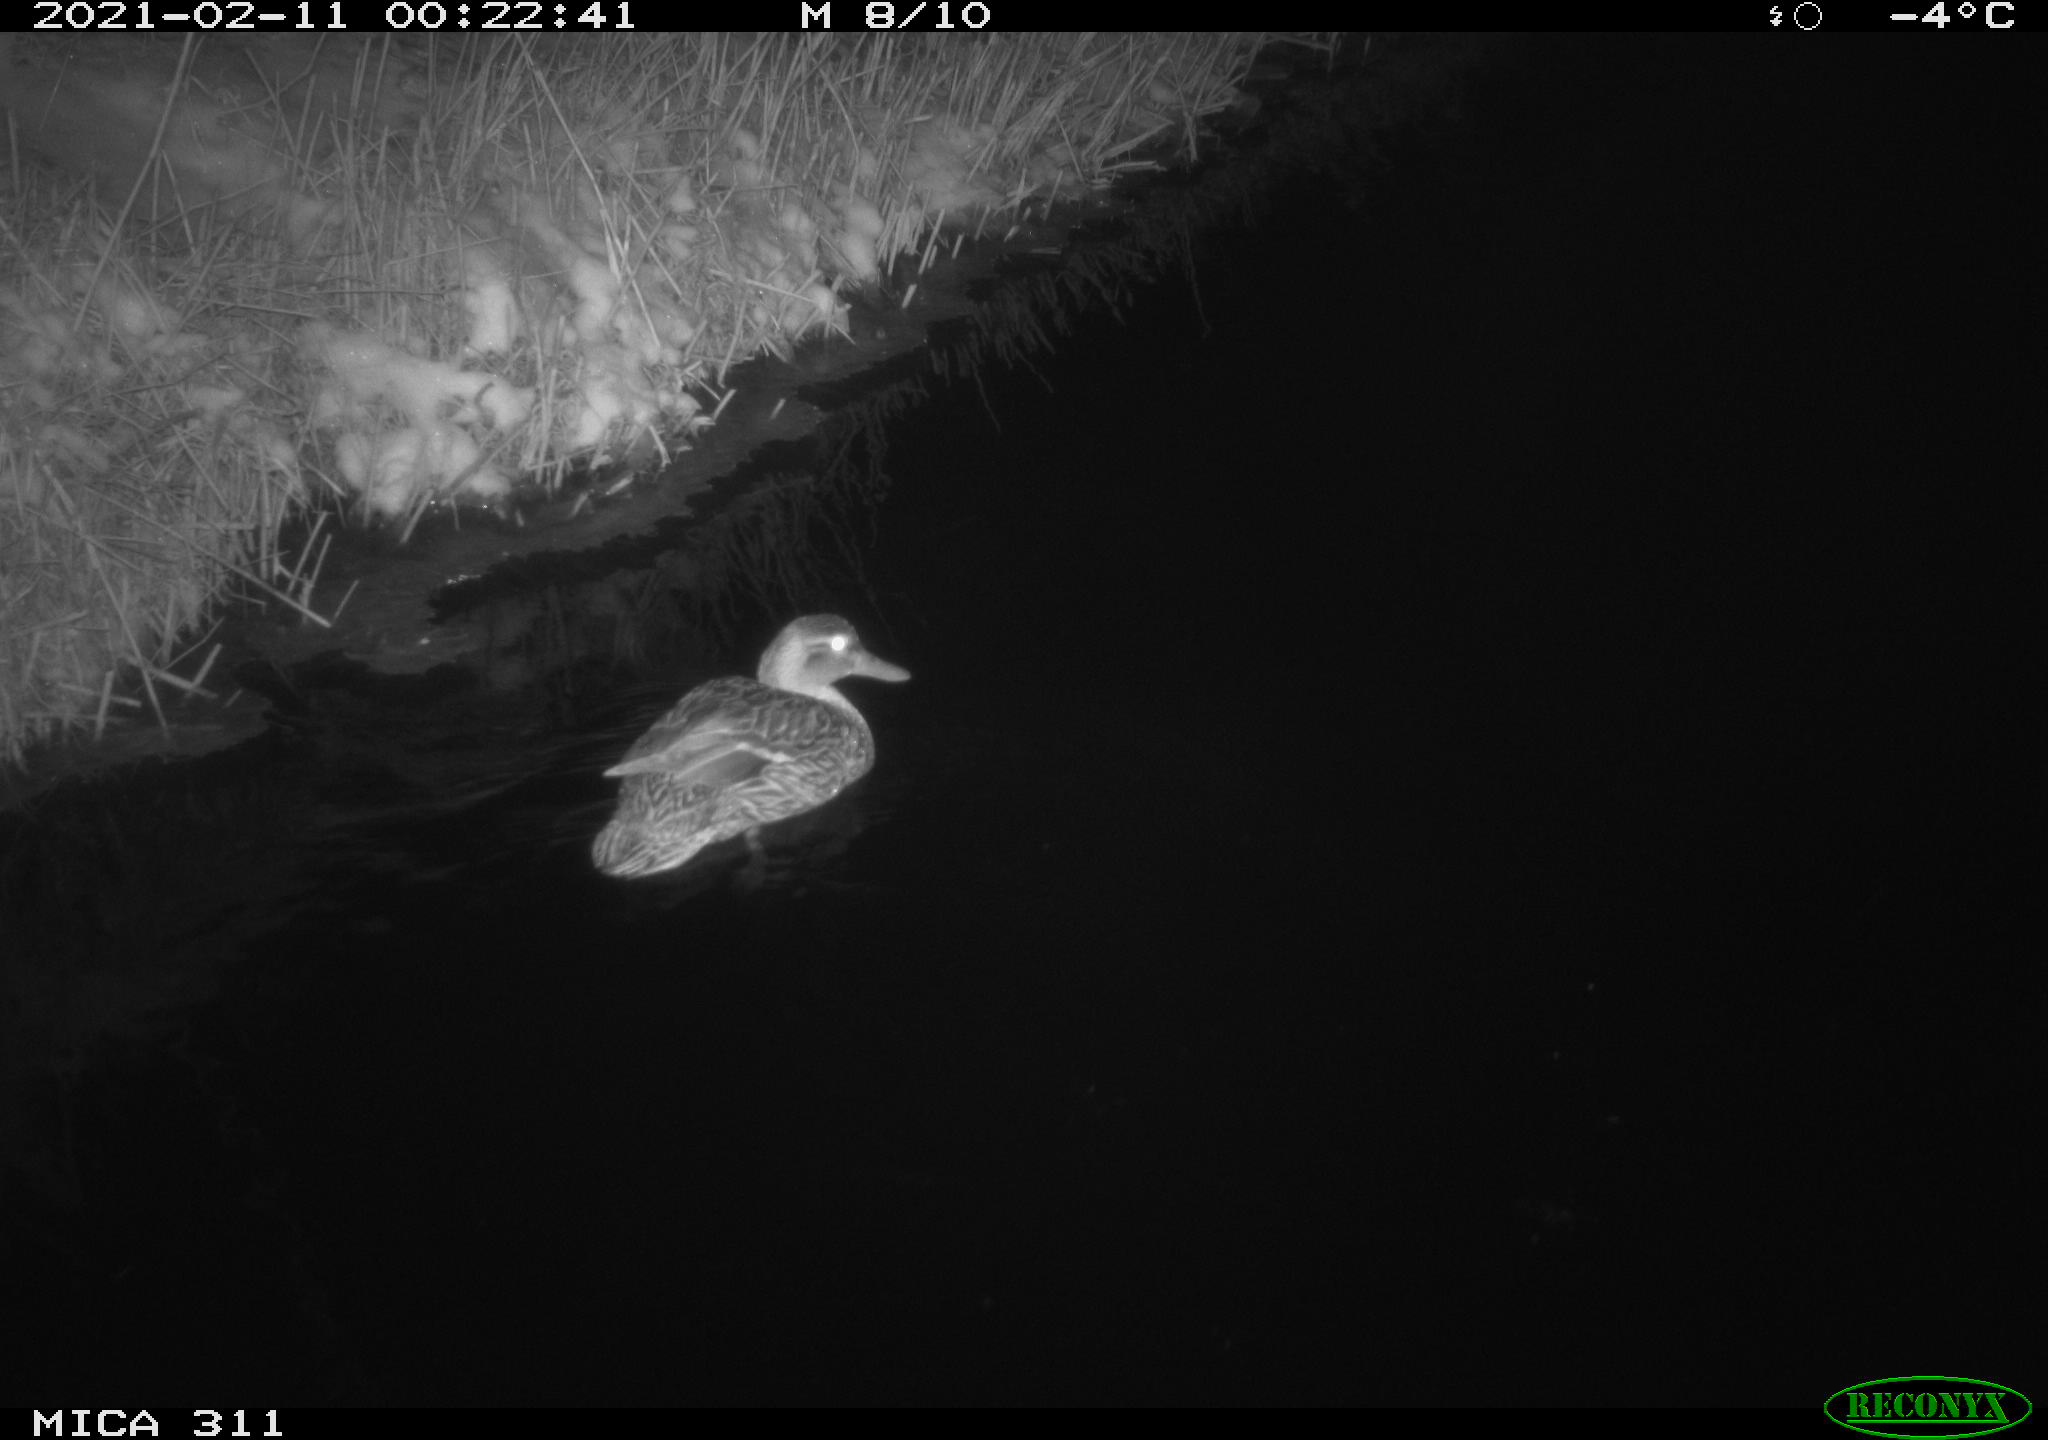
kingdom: Animalia
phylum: Chordata
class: Aves
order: Anseriformes
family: Anatidae
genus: Anas
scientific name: Anas
